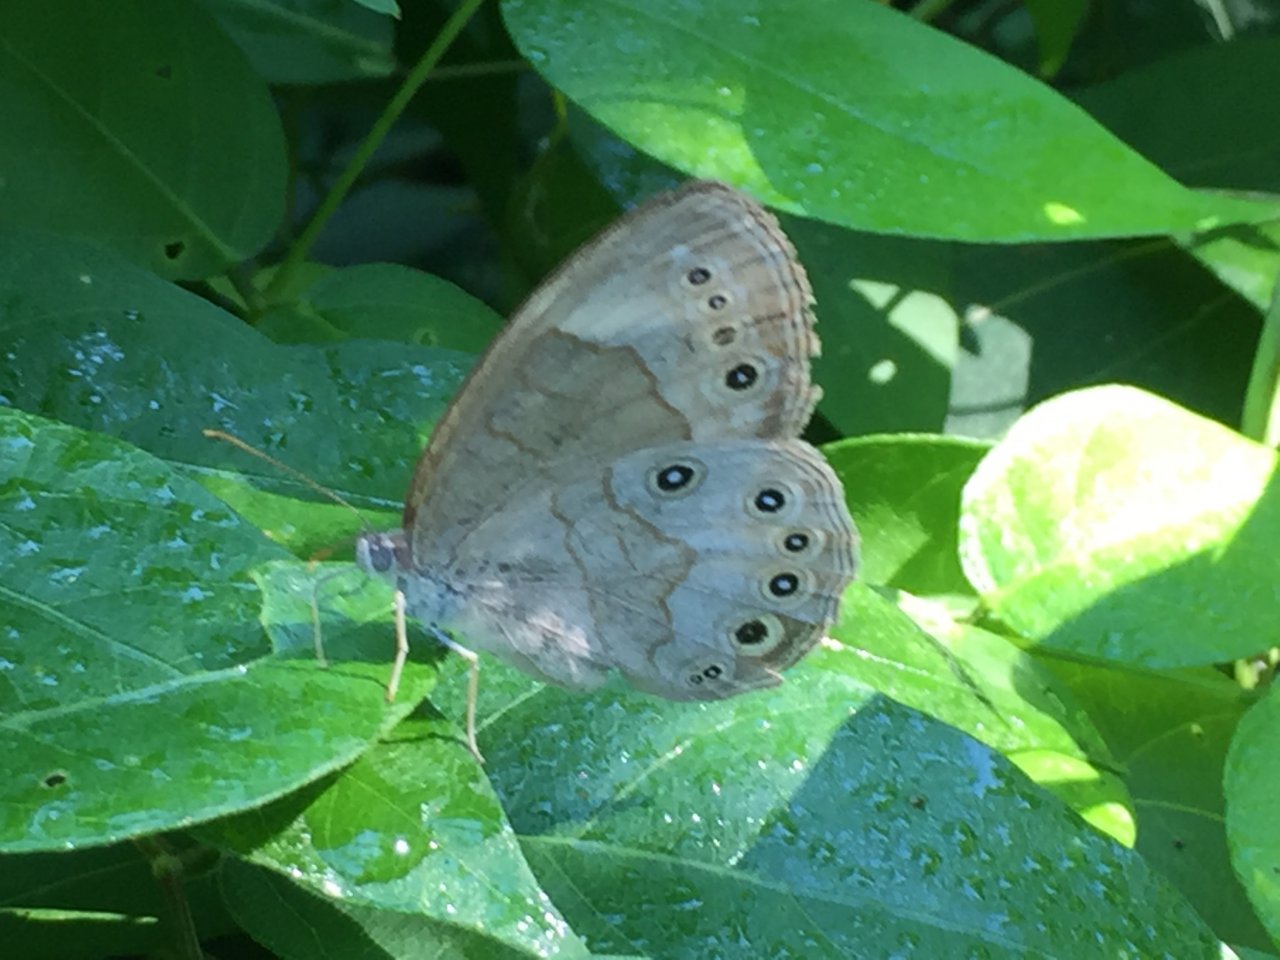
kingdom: Animalia
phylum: Arthropoda
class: Insecta
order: Lepidoptera
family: Nymphalidae
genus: Lethe
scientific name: Lethe eurydice
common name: Appalachian Eyed Brown
